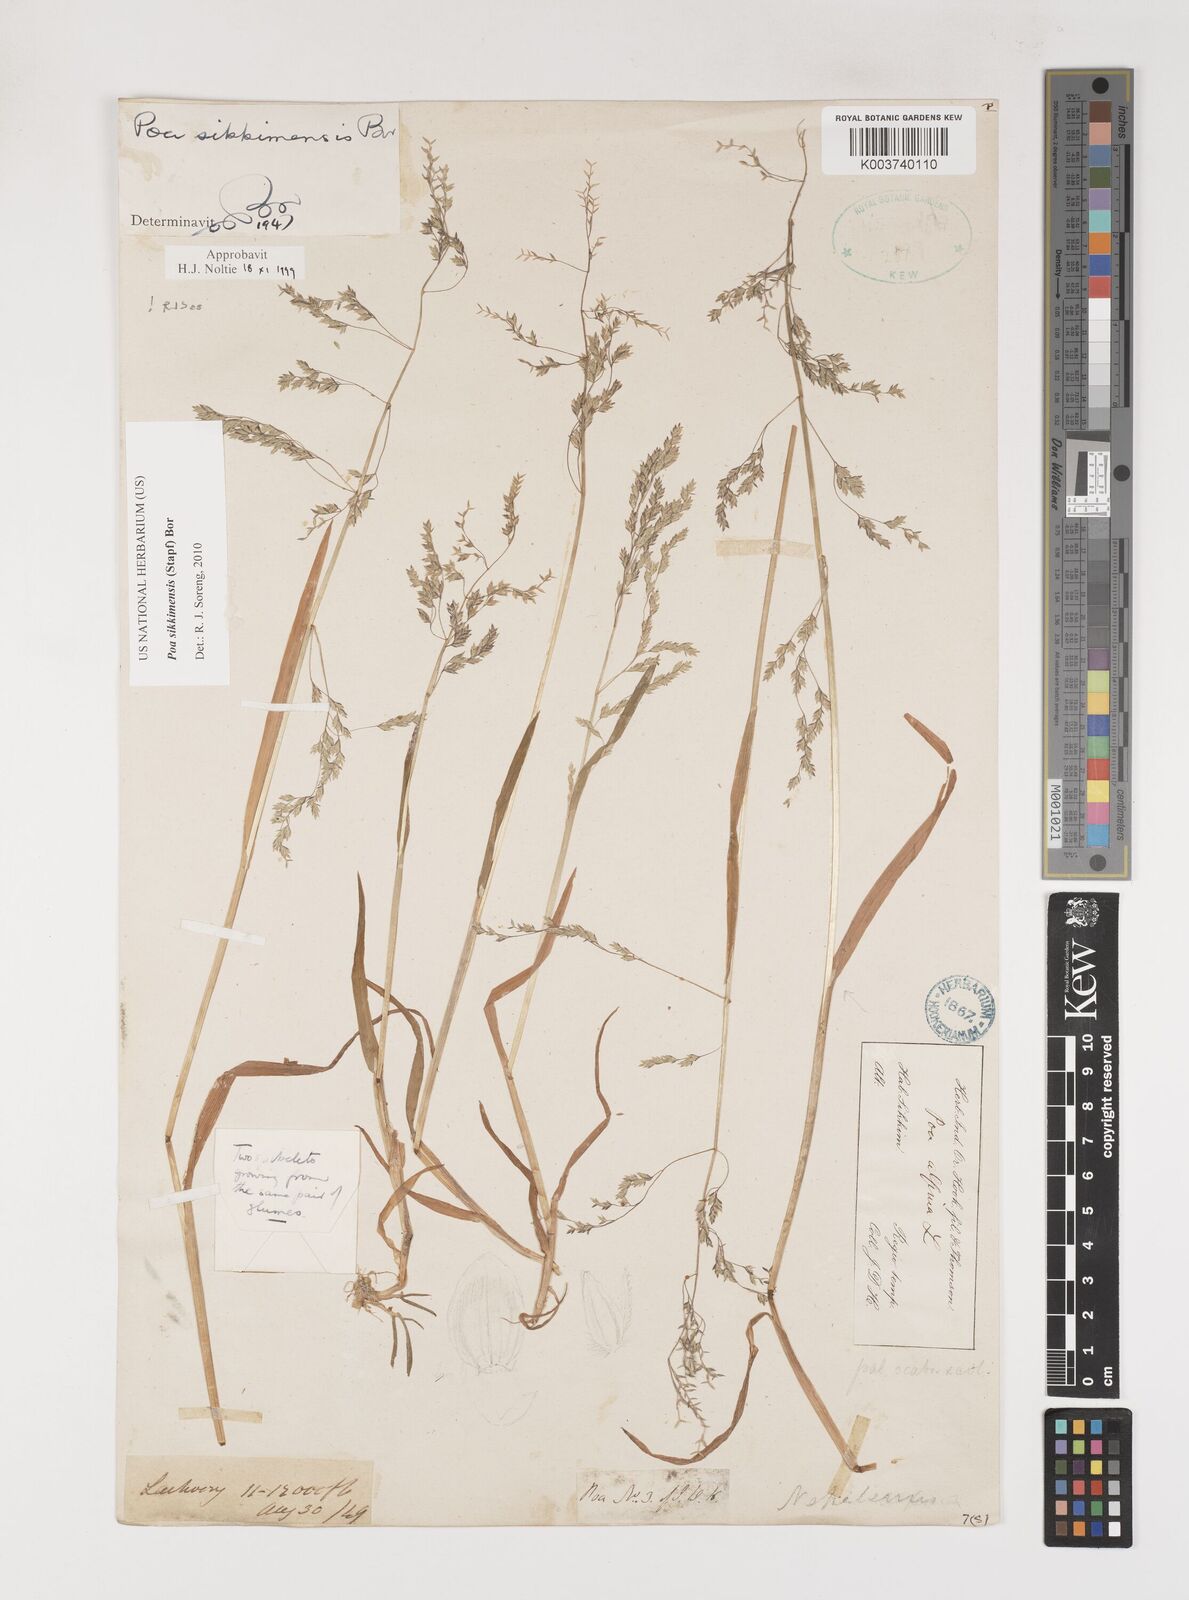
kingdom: Plantae
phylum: Tracheophyta
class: Liliopsida
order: Poales
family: Poaceae
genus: Poa
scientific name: Poa sikkimensis
